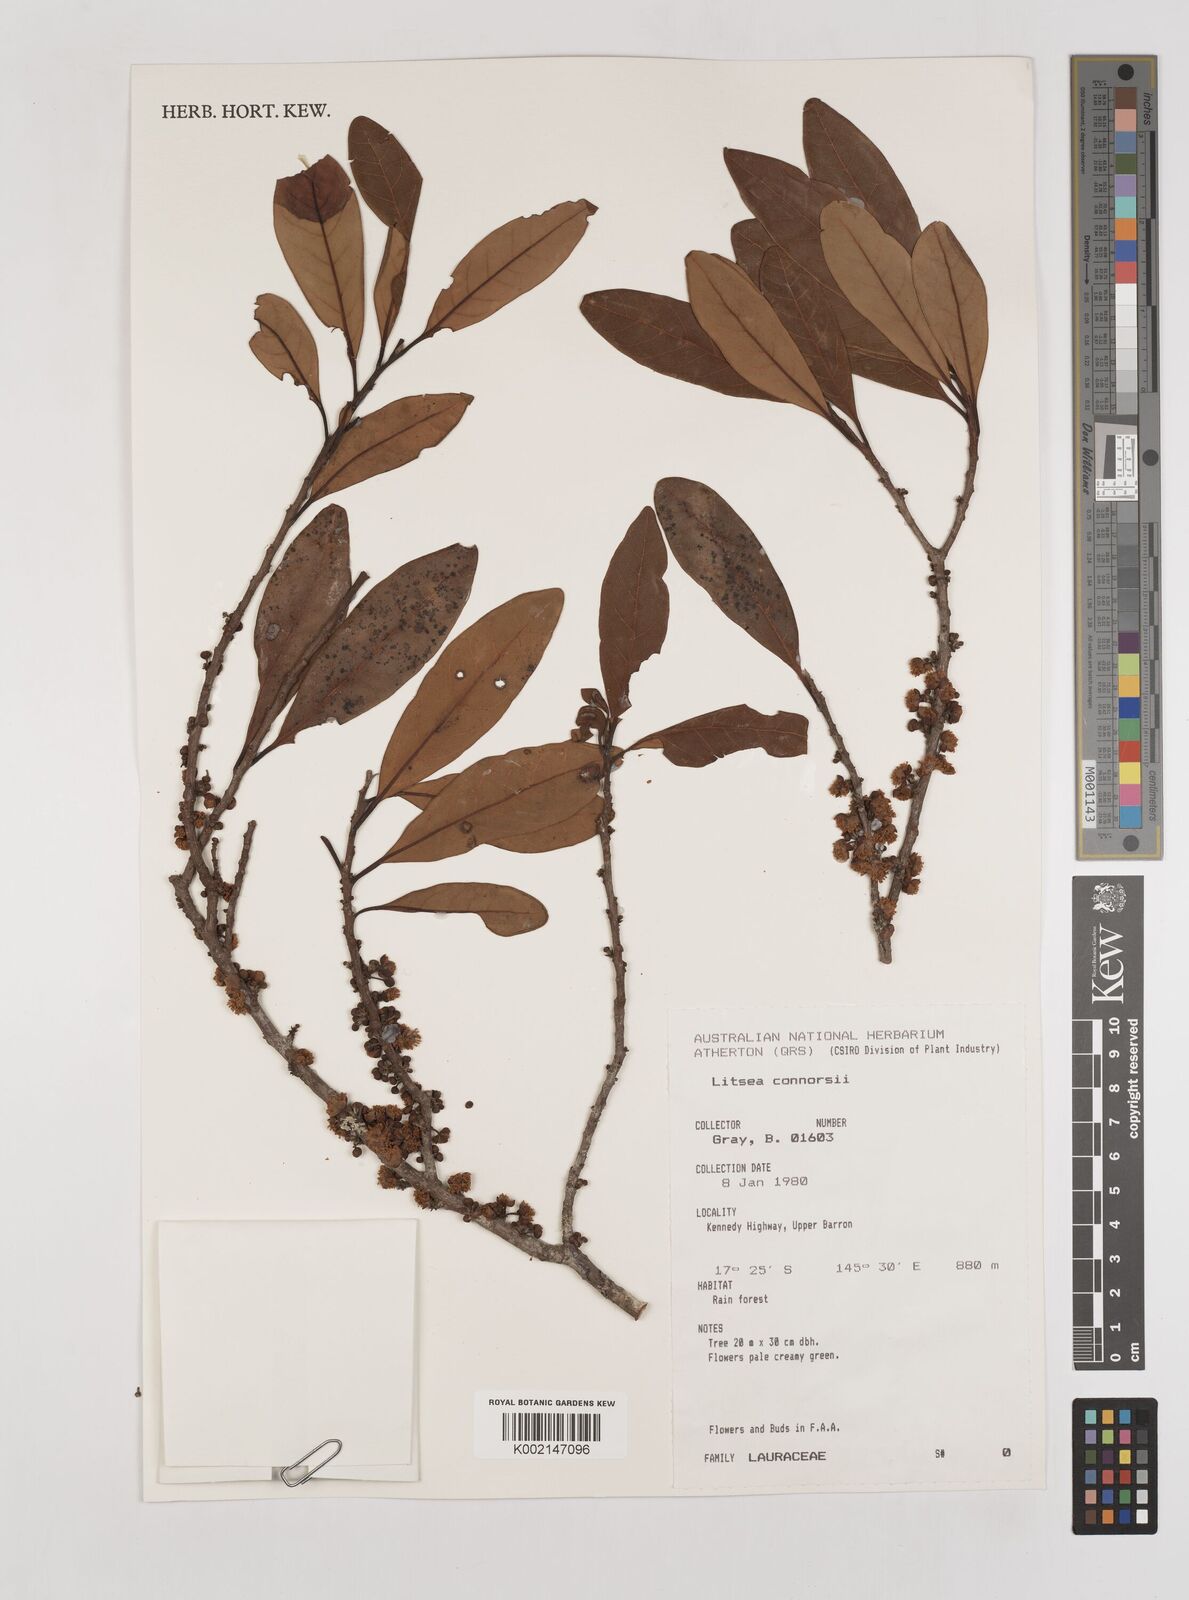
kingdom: Plantae
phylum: Tracheophyta
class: Magnoliopsida
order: Laurales
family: Lauraceae
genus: Litsea
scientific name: Litsea connorsii
